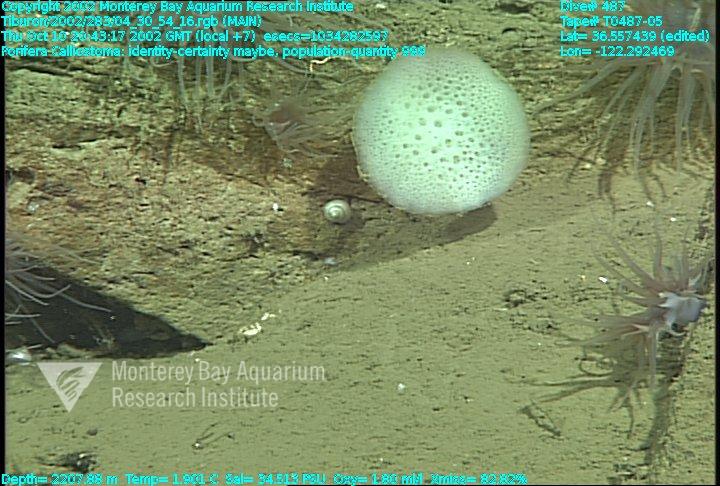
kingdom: Animalia
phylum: Porifera
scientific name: Porifera
